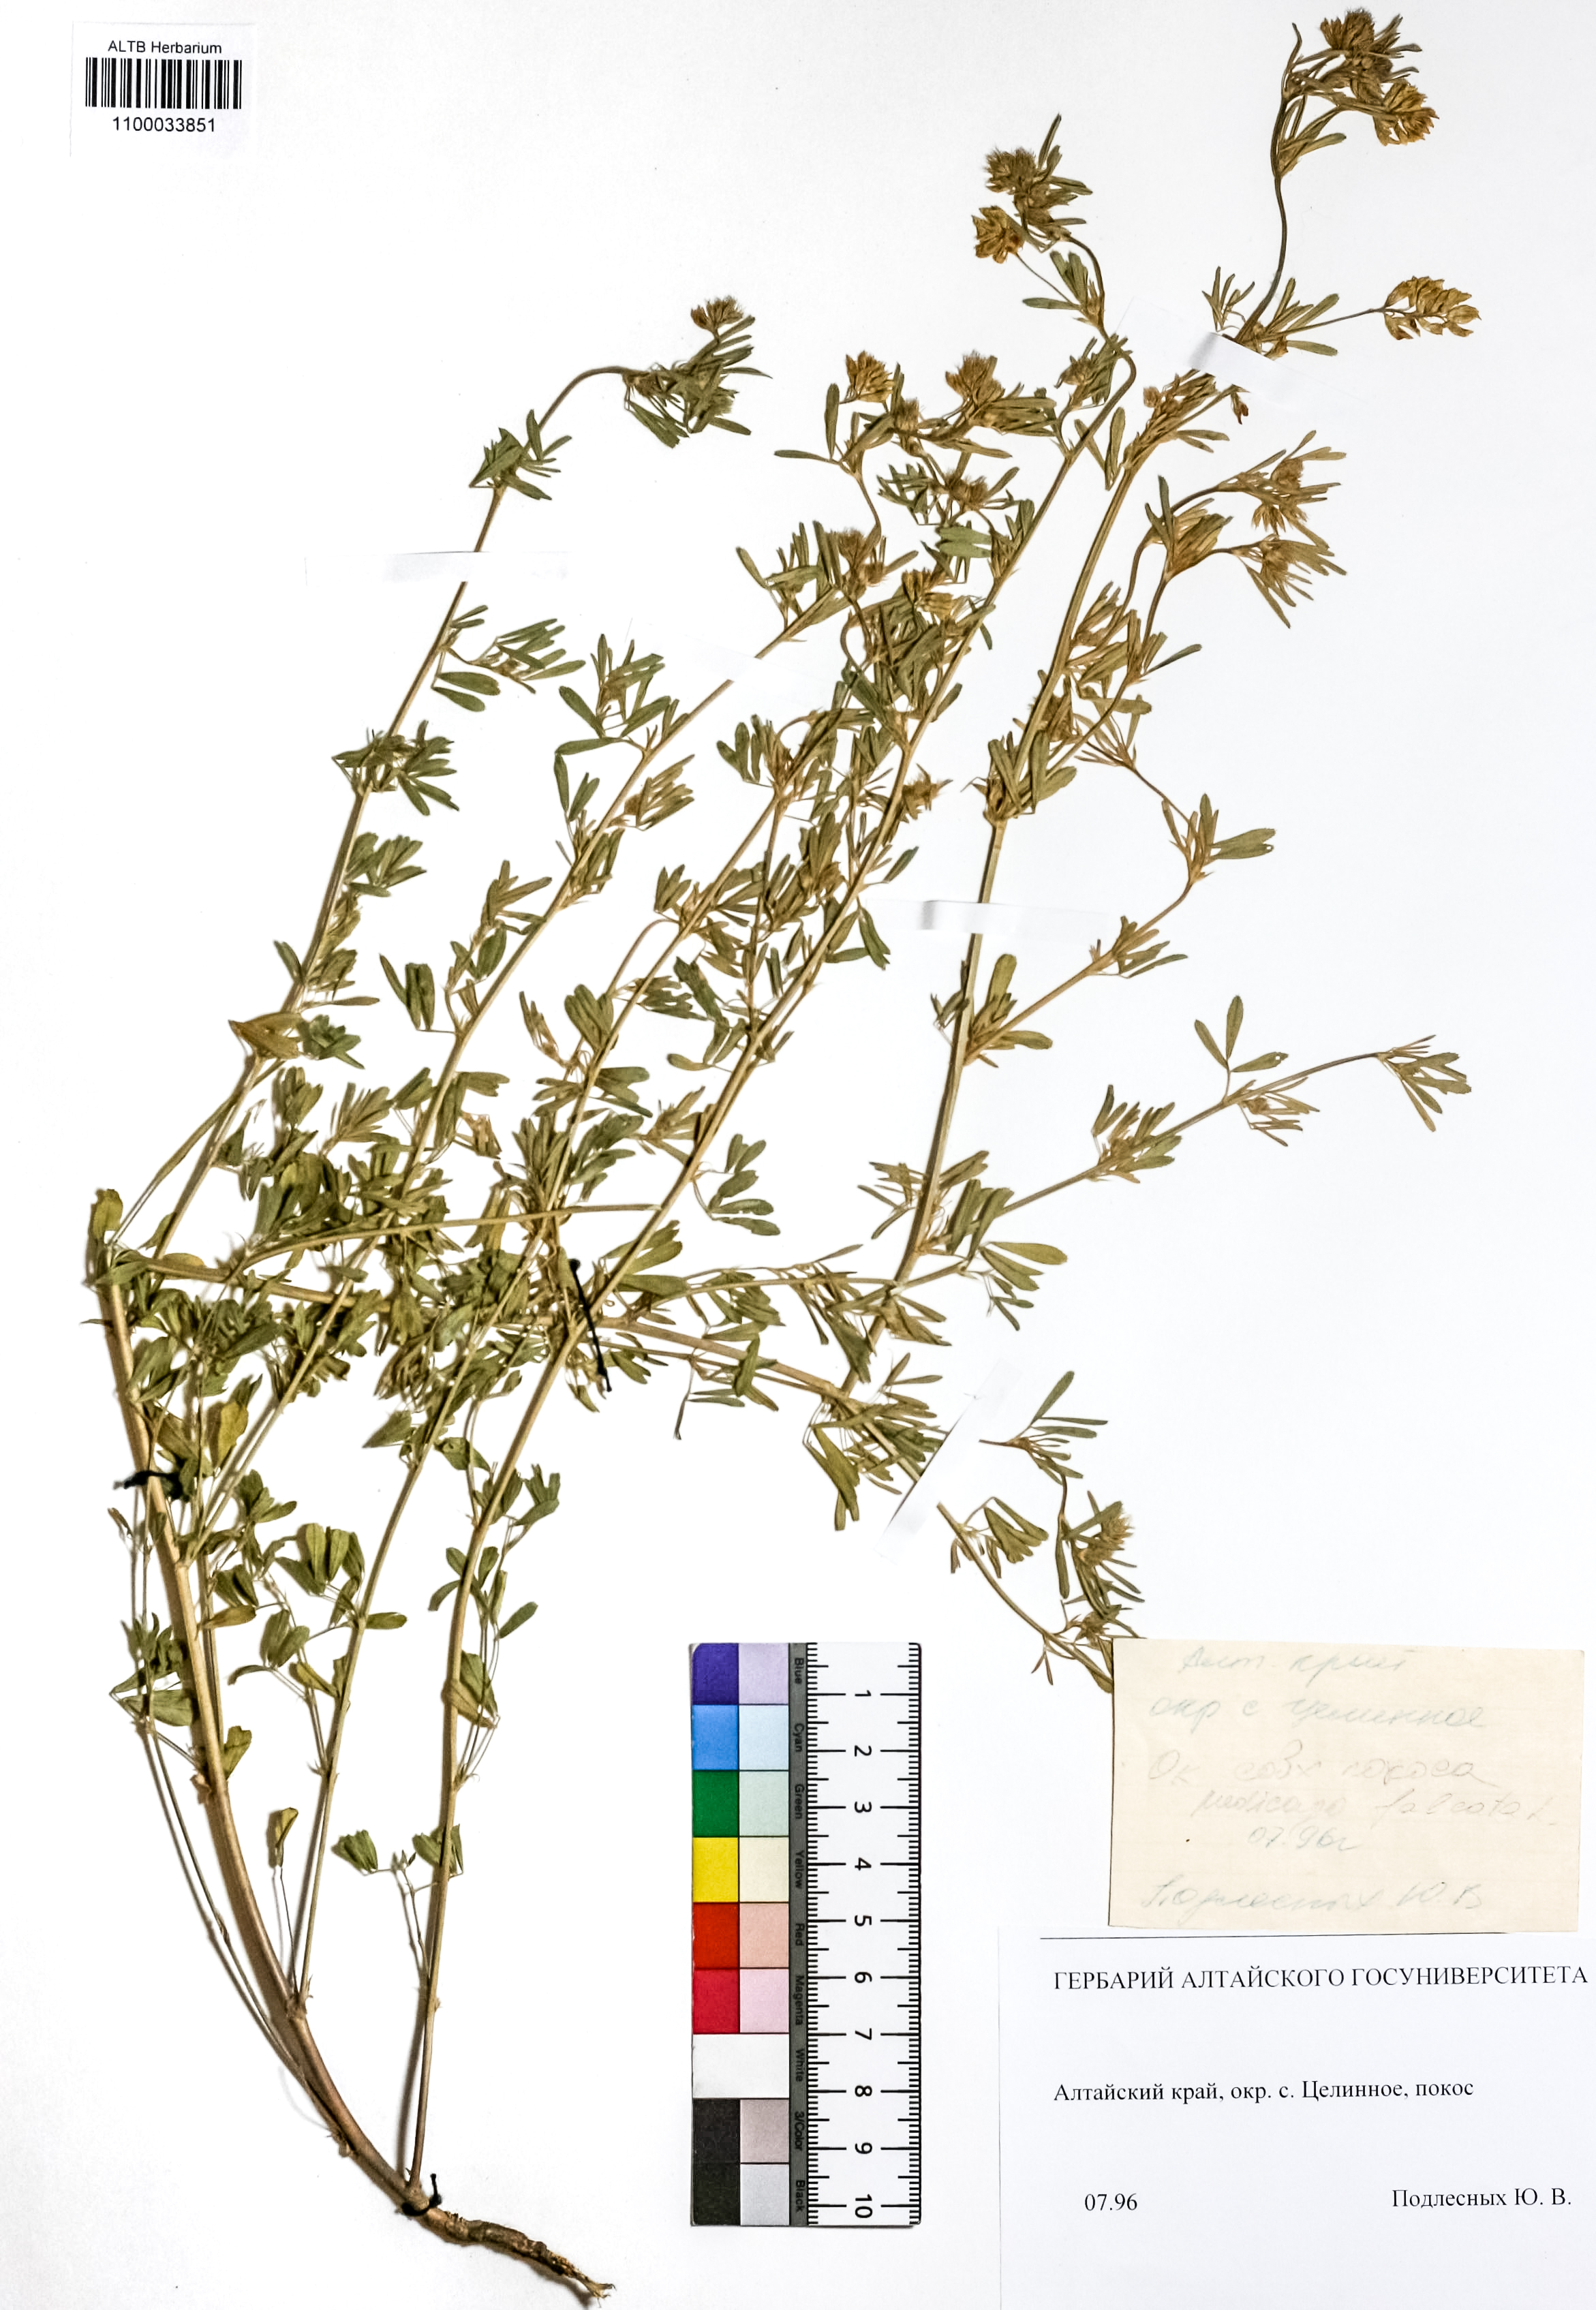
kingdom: Plantae
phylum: Tracheophyta
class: Magnoliopsida
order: Fabales
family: Fabaceae
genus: Medicago
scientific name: Medicago falcata
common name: Sickle medick
